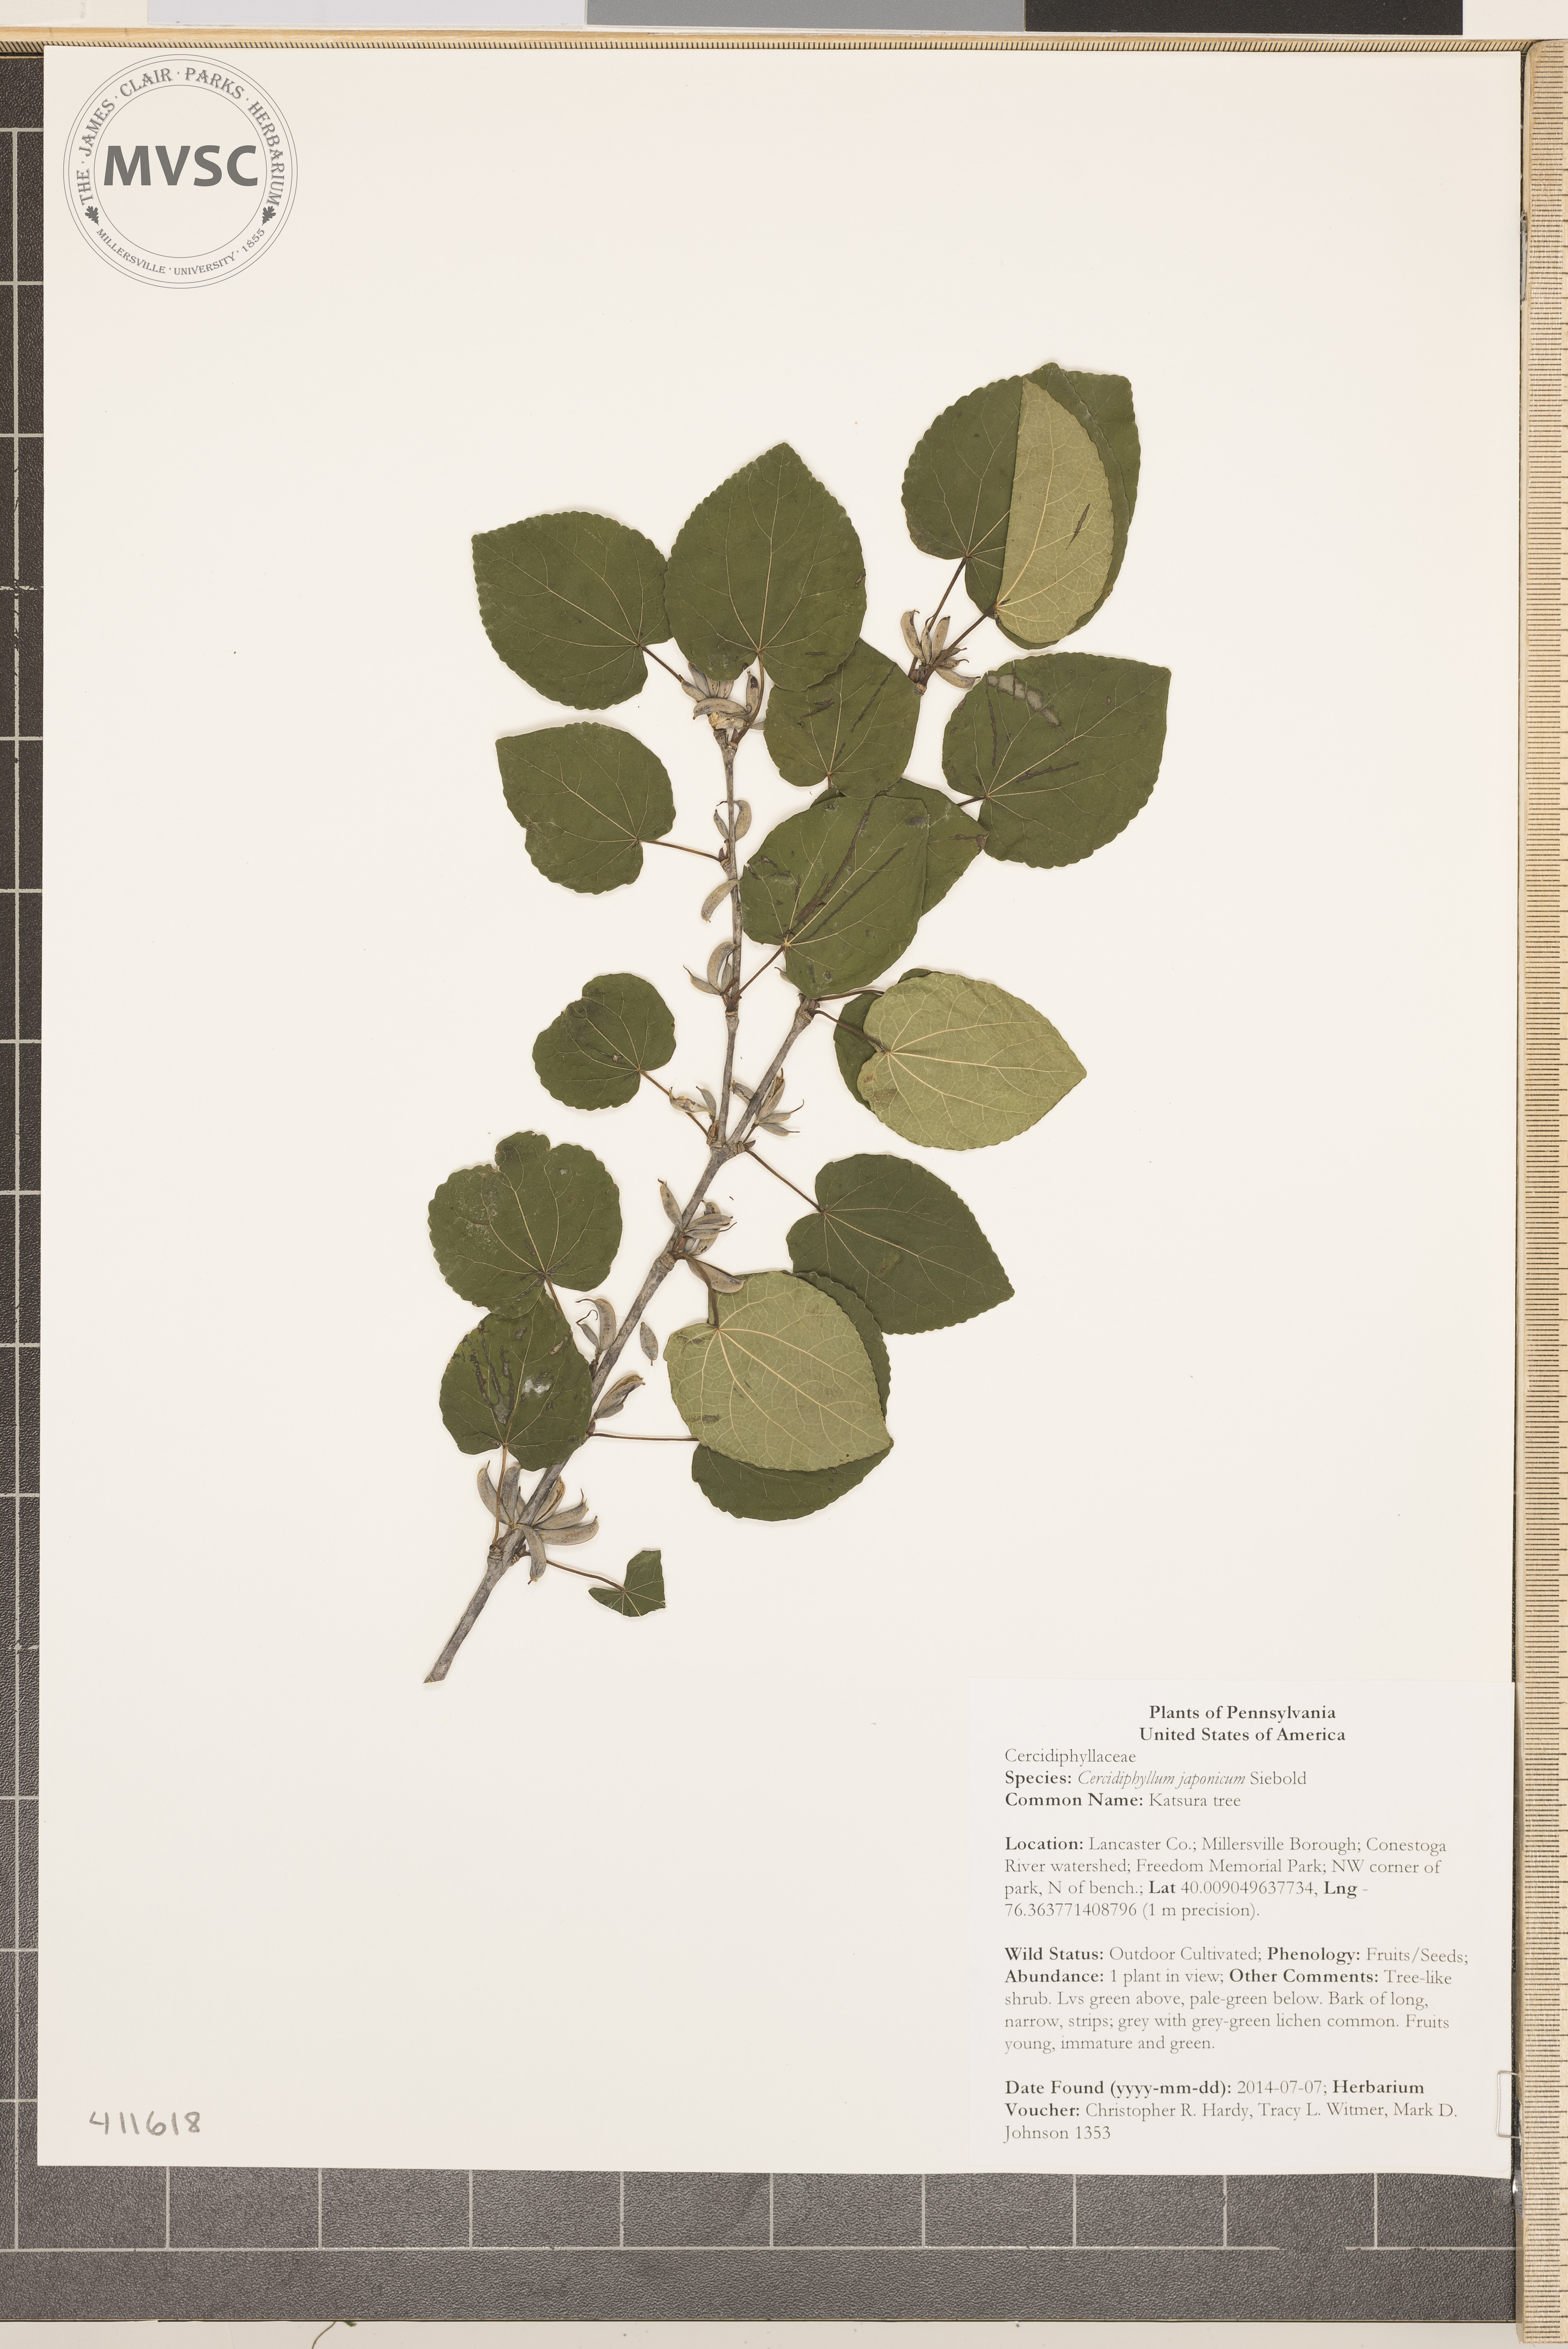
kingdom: Plantae
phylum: Tracheophyta
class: Magnoliopsida
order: Saxifragales
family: Cercidiphyllaceae
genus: Cercidiphyllum
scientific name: Cercidiphyllum japonicum
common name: Katsura tree
